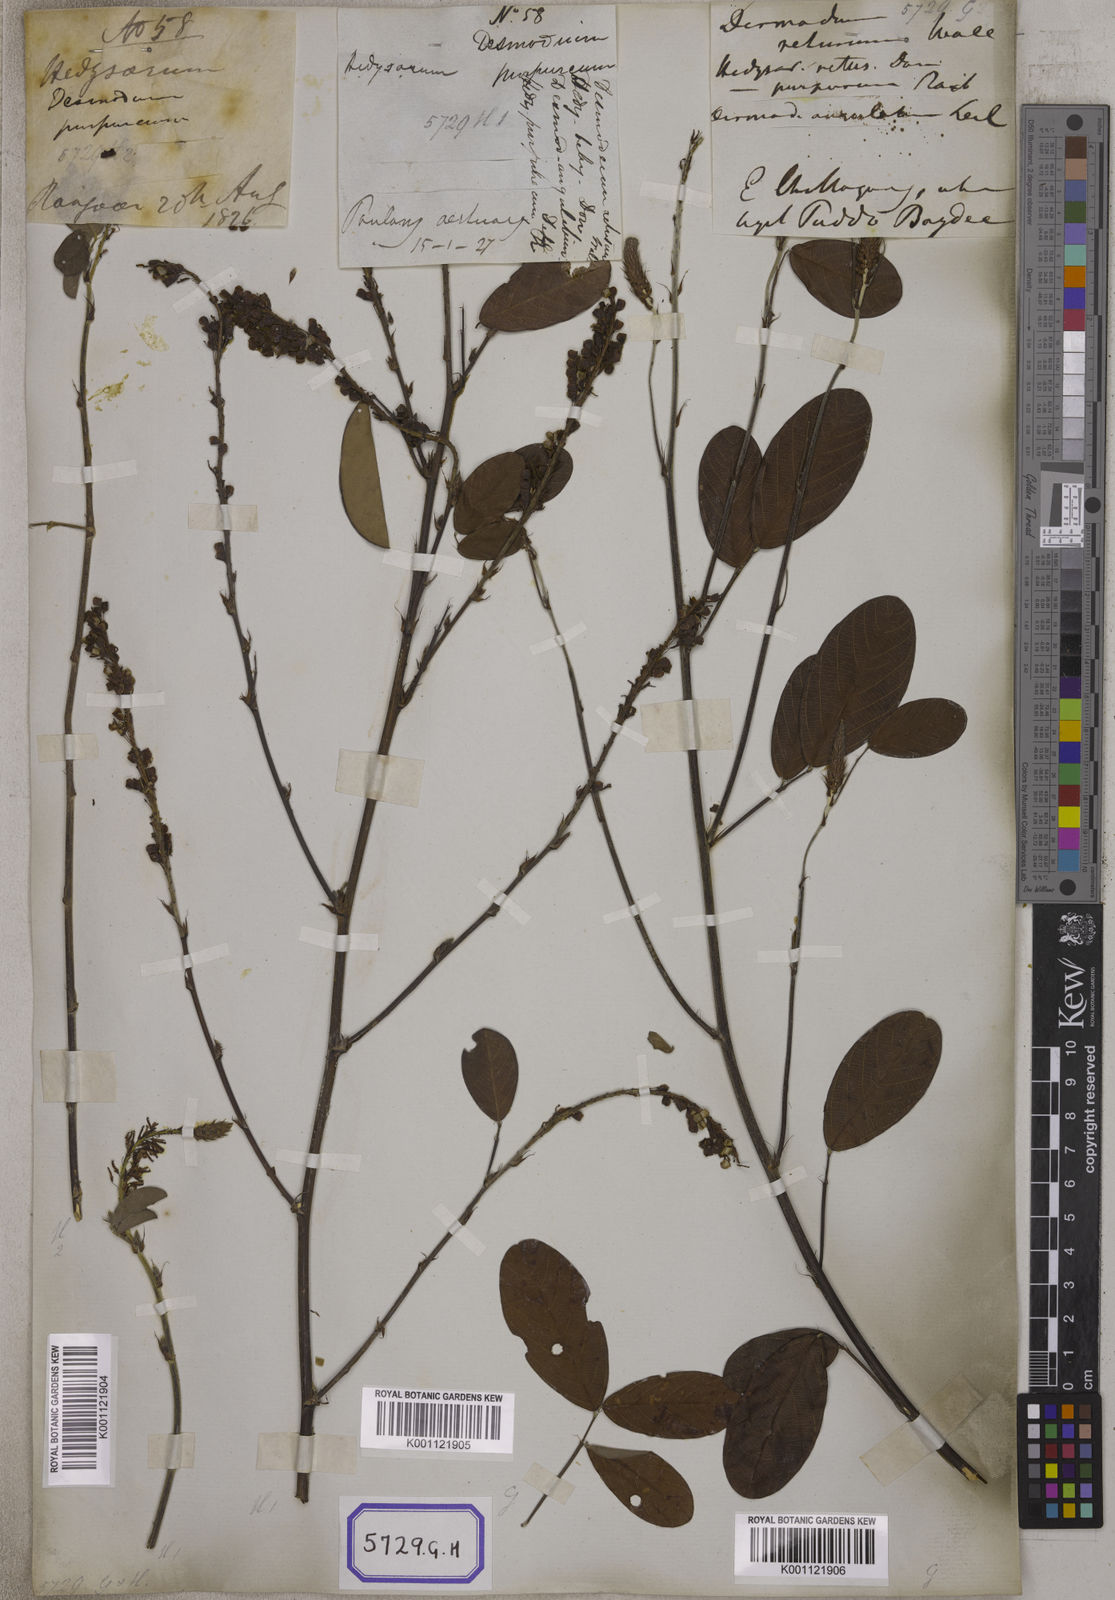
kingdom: Plantae
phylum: Tracheophyta
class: Magnoliopsida
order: Fabales
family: Fabaceae
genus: Desmodium
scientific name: Desmodium
